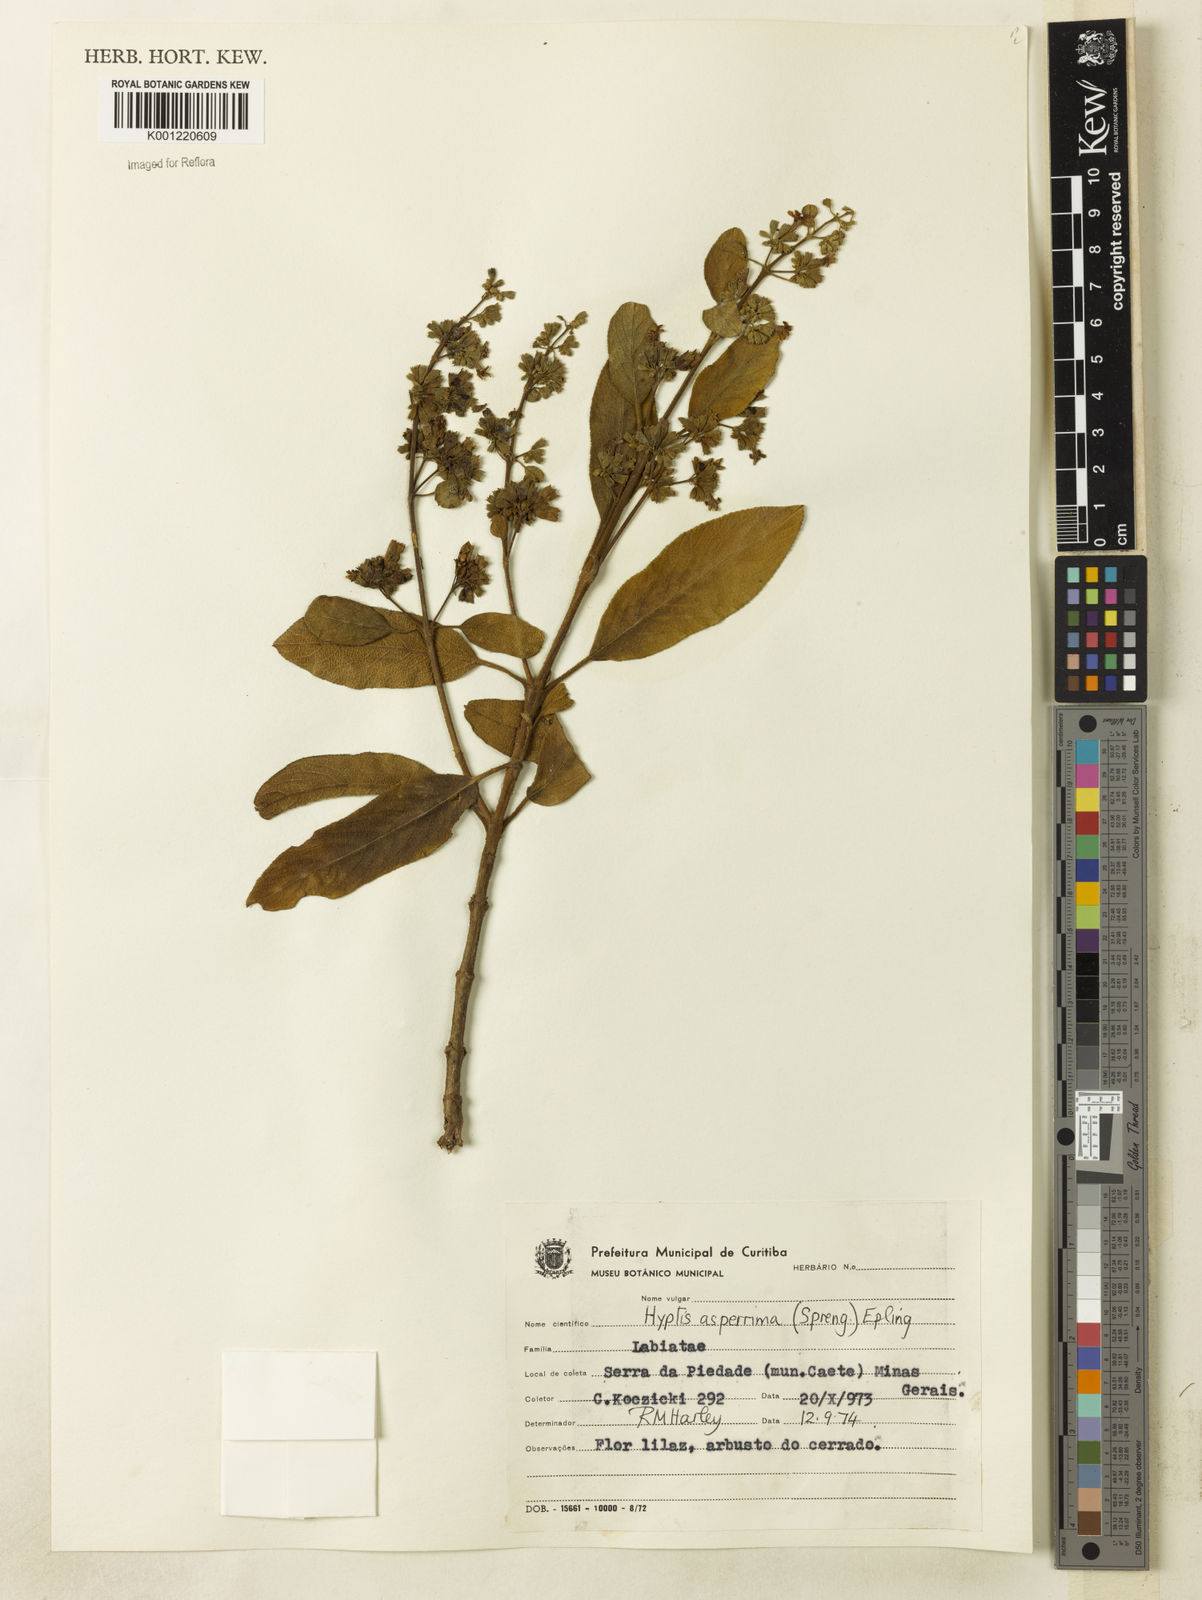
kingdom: Plantae
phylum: Tracheophyta
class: Magnoliopsida
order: Lamiales
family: Lamiaceae
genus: Hyptidendron
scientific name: Hyptidendron asperrimum
